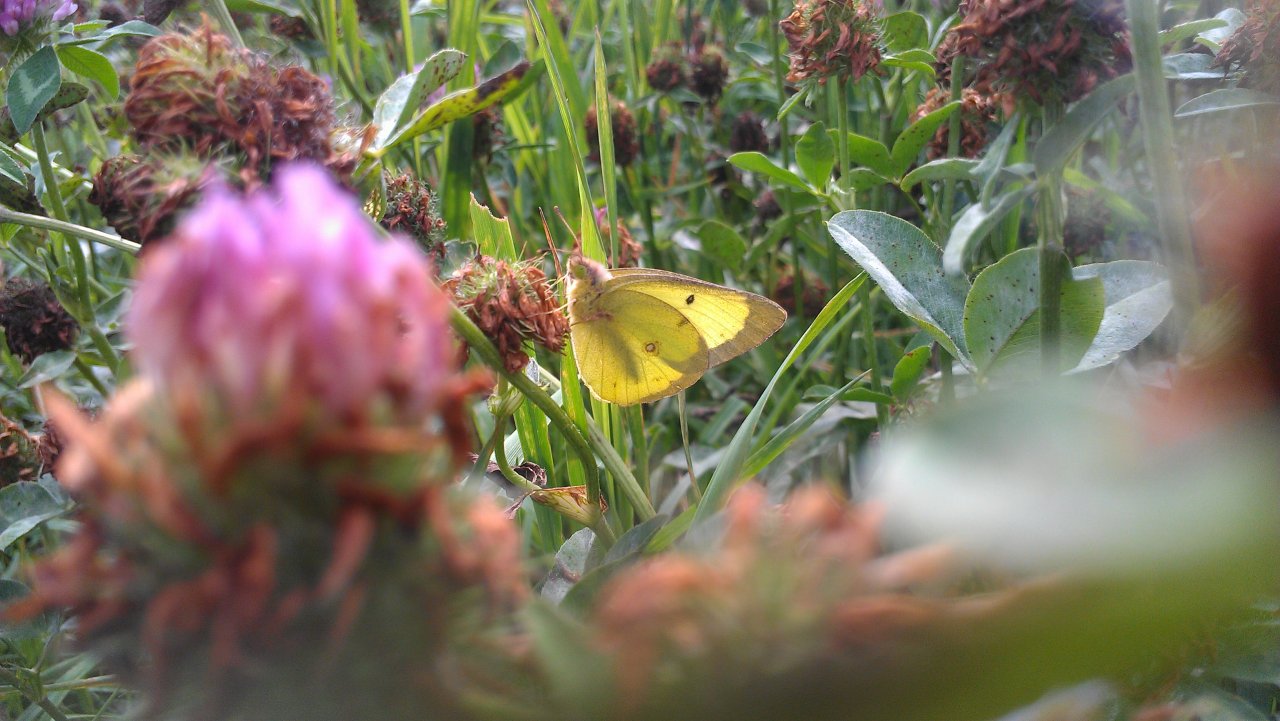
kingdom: Animalia
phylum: Arthropoda
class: Insecta
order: Lepidoptera
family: Pieridae
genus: Colias
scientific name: Colias philodice
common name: Clouded Sulphur
